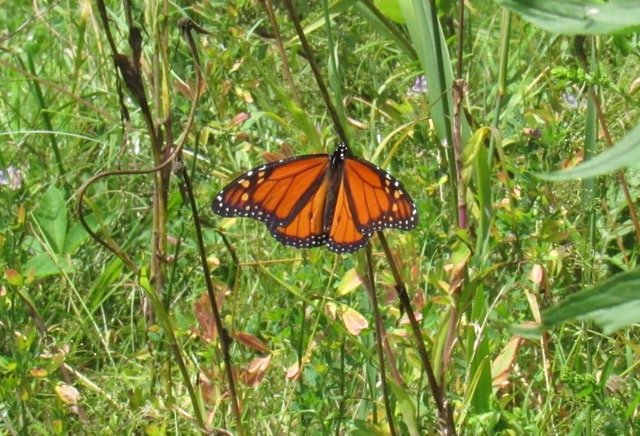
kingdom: Animalia
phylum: Arthropoda
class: Insecta
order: Lepidoptera
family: Nymphalidae
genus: Danaus
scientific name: Danaus plexippus
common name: Monarch
